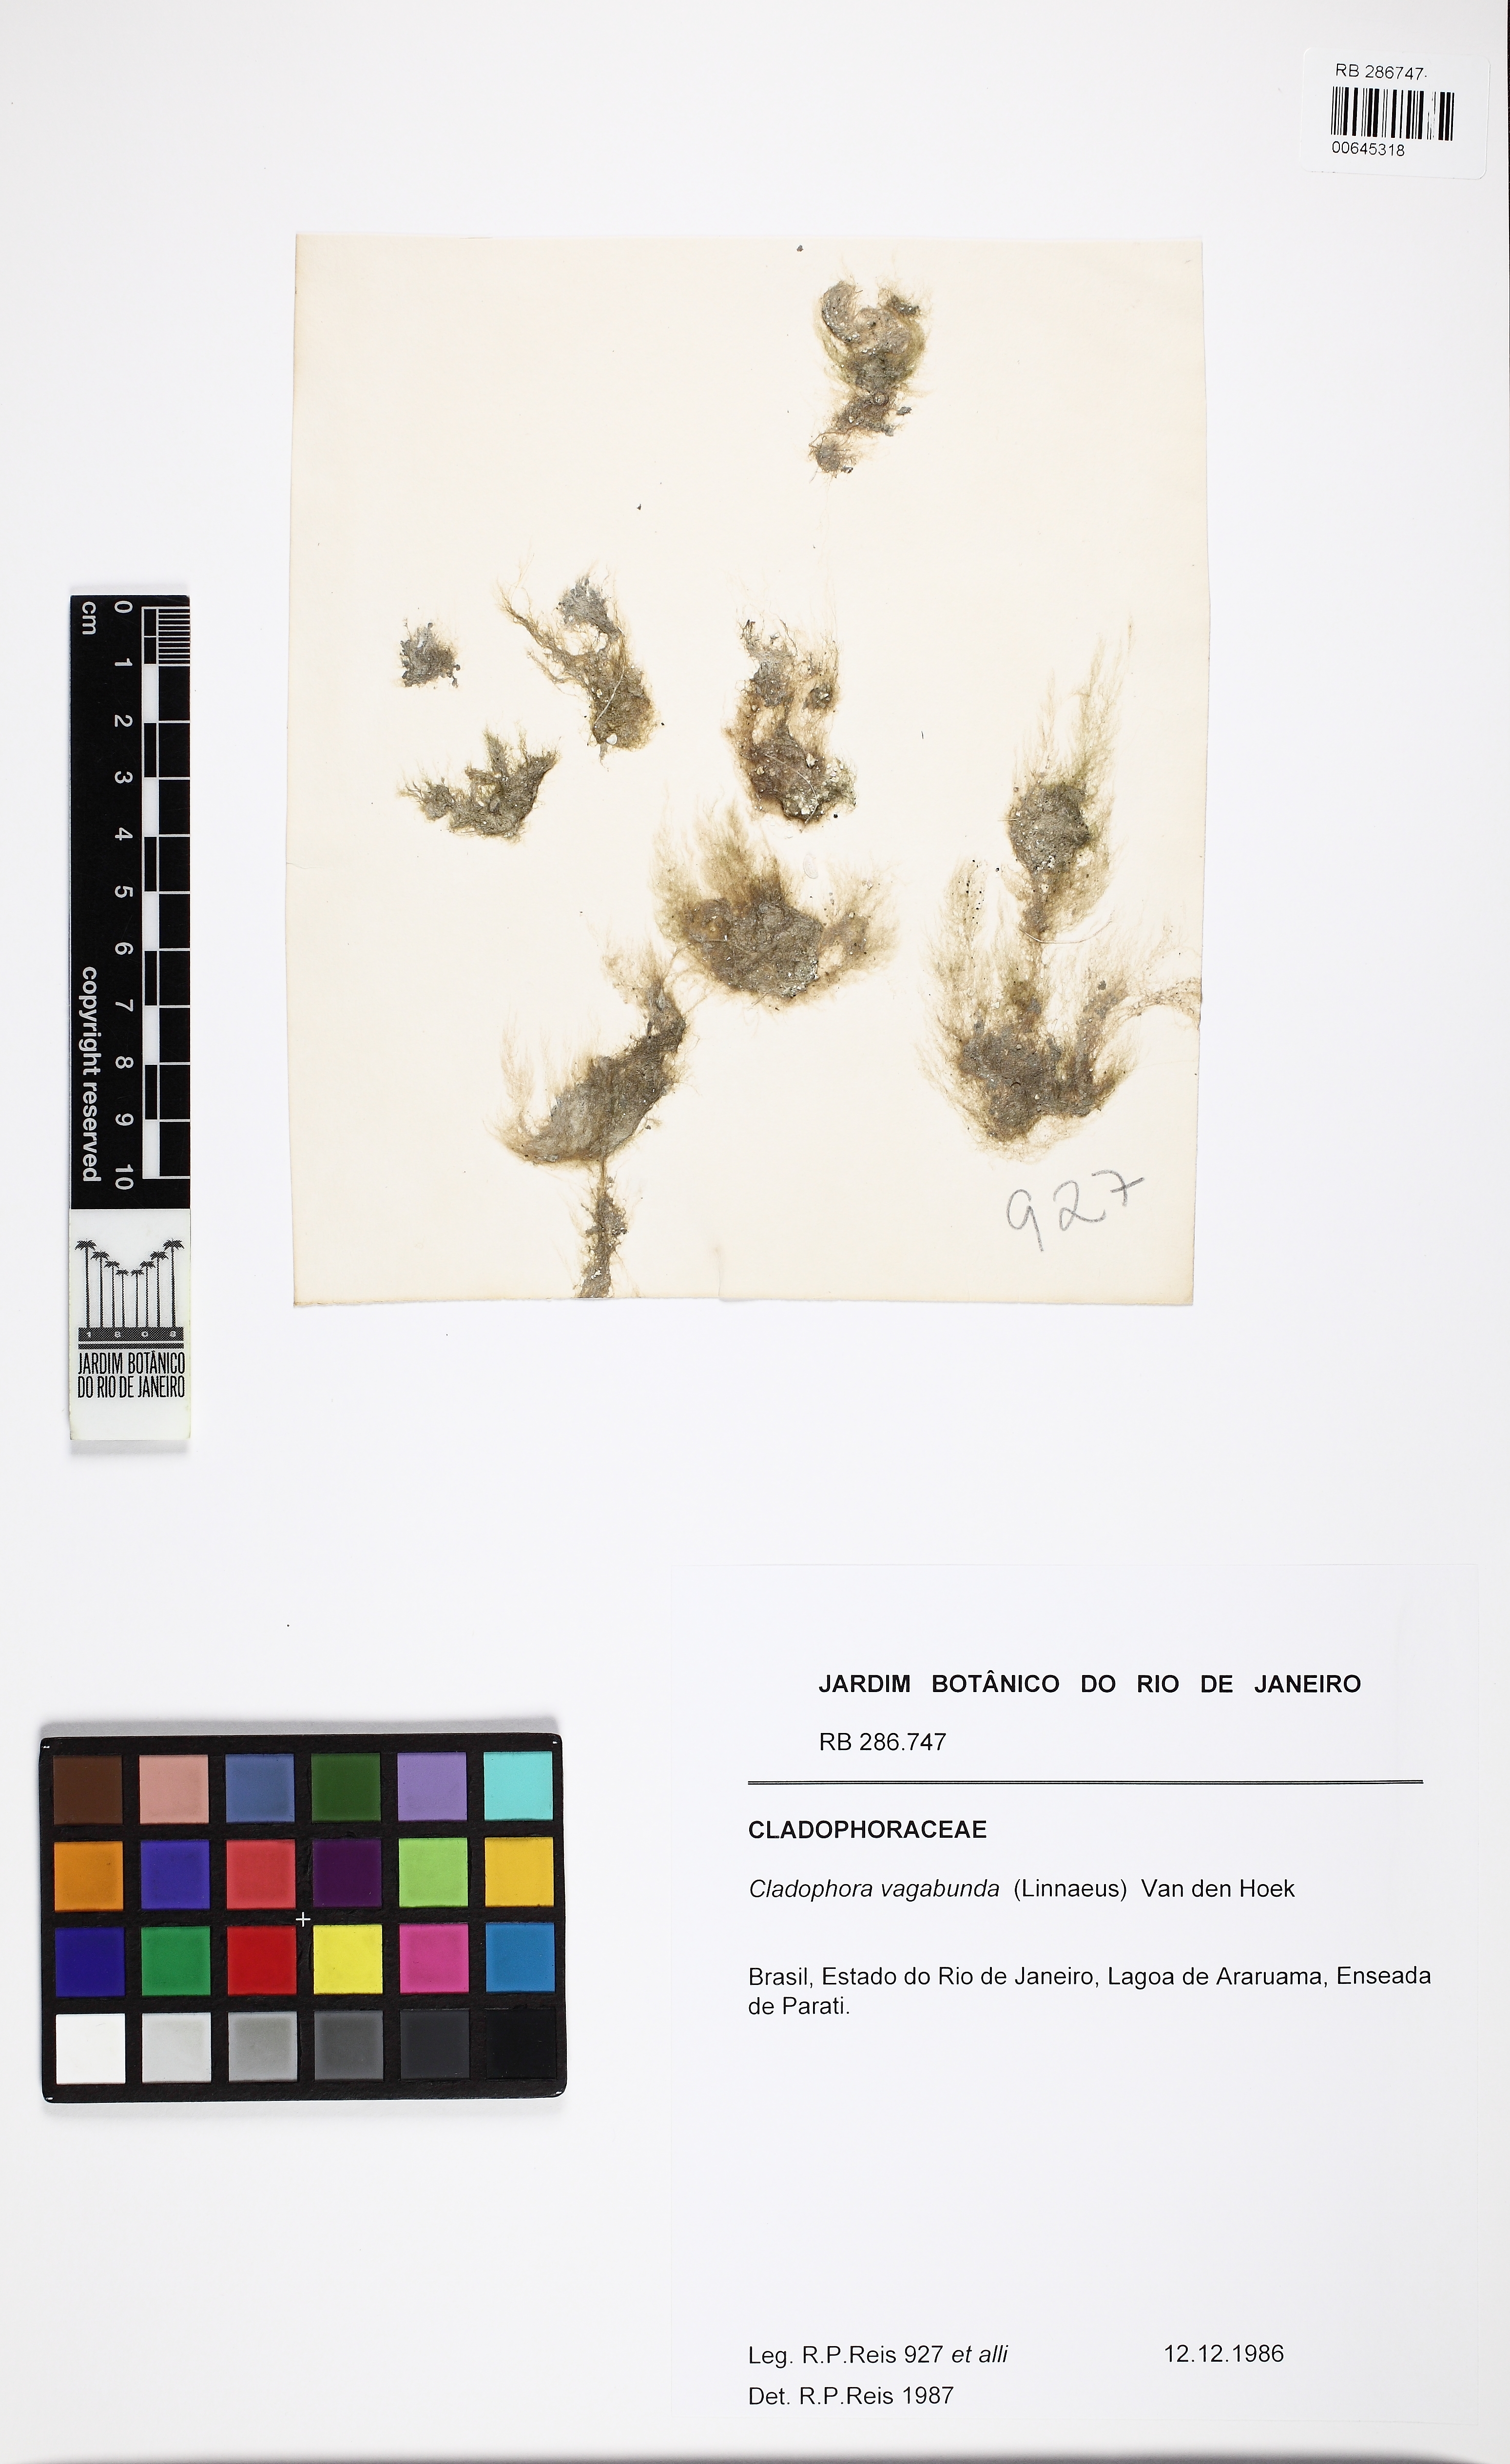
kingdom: Plantae
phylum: Chlorophyta
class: Ulvophyceae
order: Cladophorales
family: Cladophoraceae
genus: Cladophora
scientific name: Cladophora vagabunda
